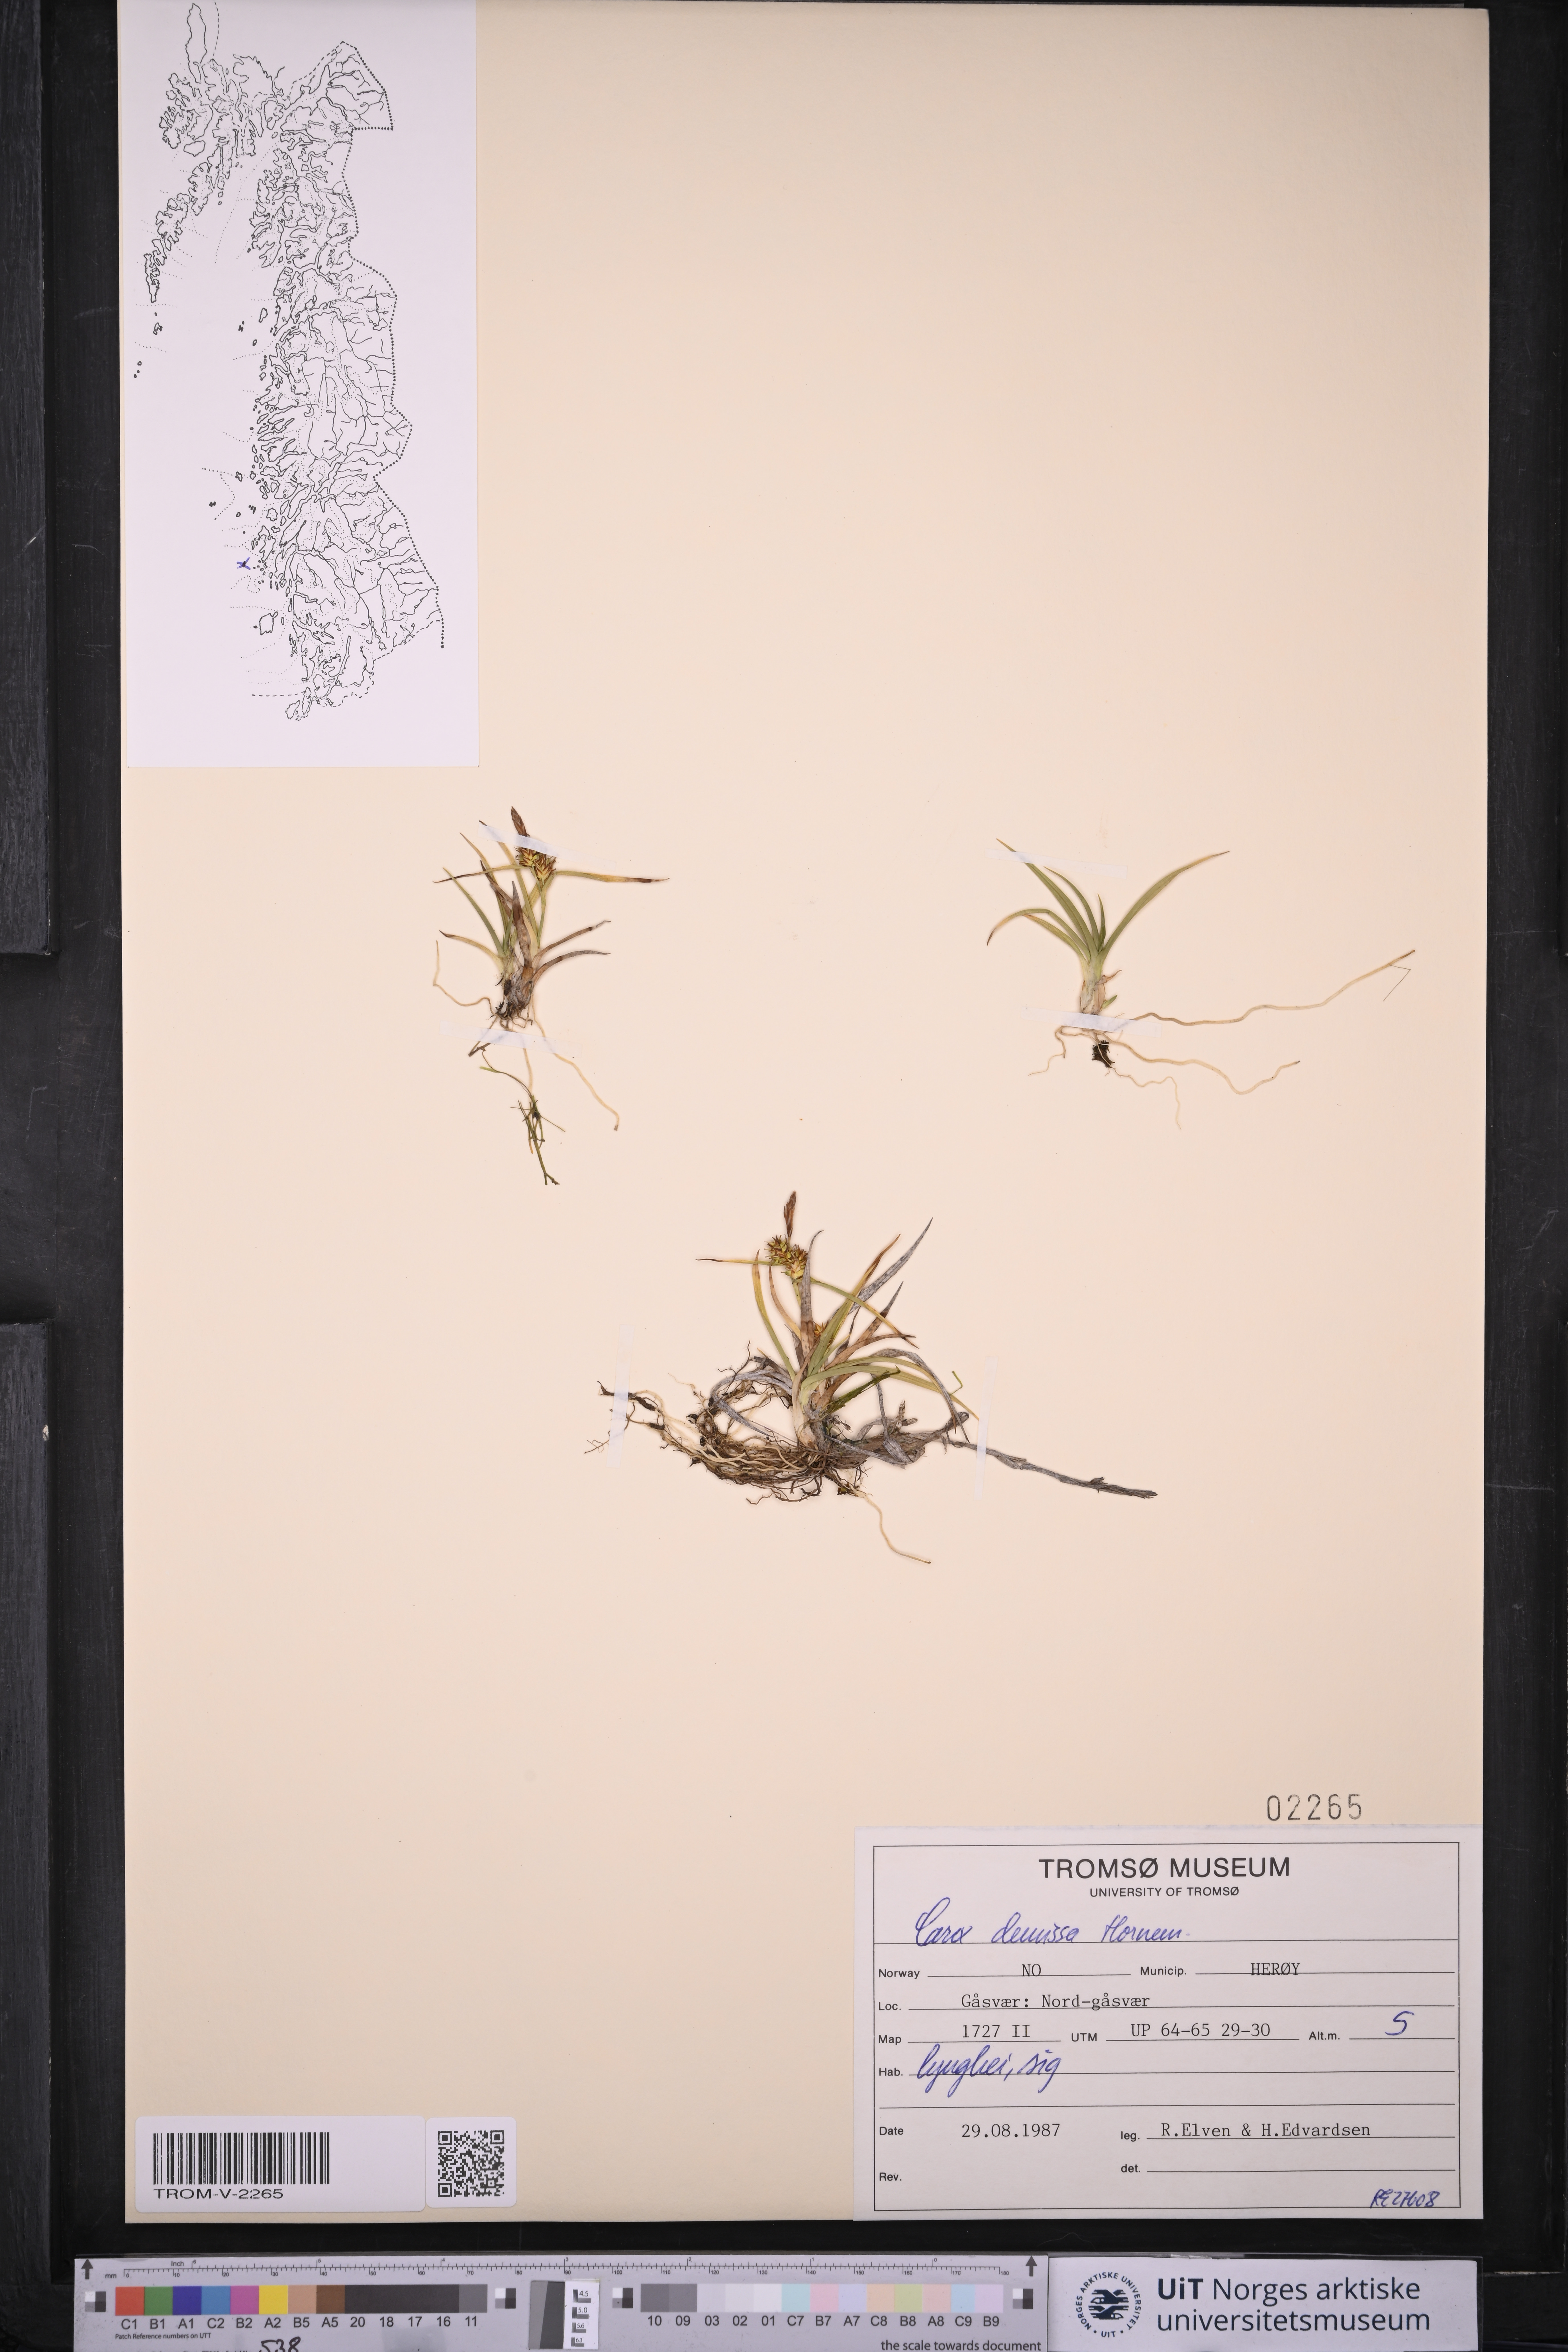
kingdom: Plantae
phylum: Tracheophyta
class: Liliopsida
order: Poales
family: Cyperaceae
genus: Carex
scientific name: Carex demissa
